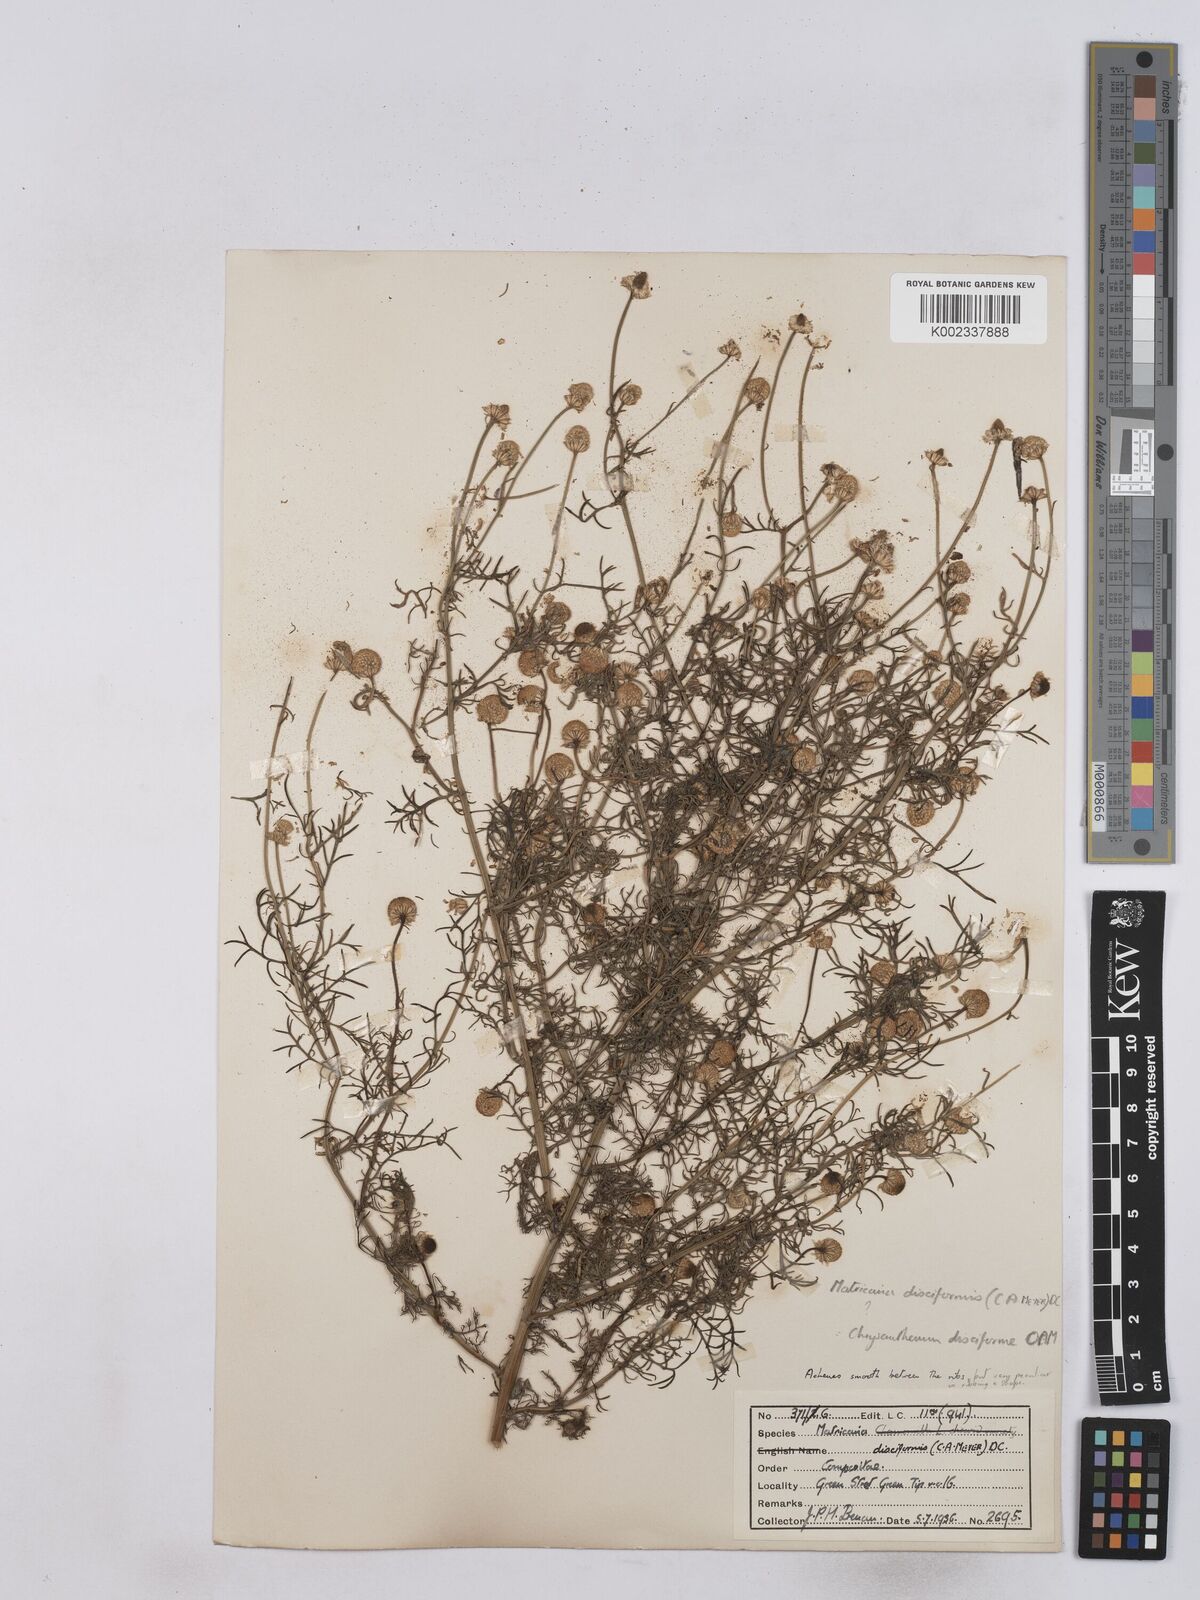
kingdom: Plantae
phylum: Tracheophyta
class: Magnoliopsida
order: Asterales
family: Asteraceae
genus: Matricaria
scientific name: Matricaria discoidea
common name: Disc mayweed
